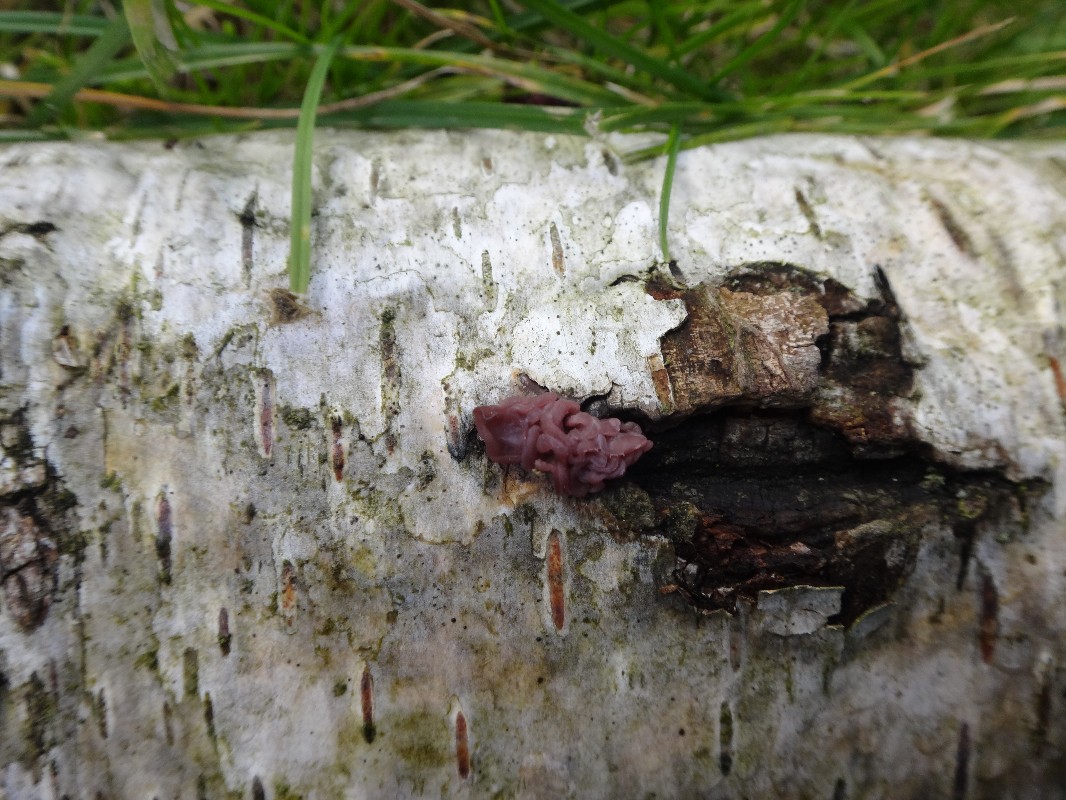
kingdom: Fungi
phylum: Ascomycota
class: Leotiomycetes
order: Helotiales
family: Gelatinodiscaceae
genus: Ascotremella
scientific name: Ascotremella faginea
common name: hjerne-bævreskive
